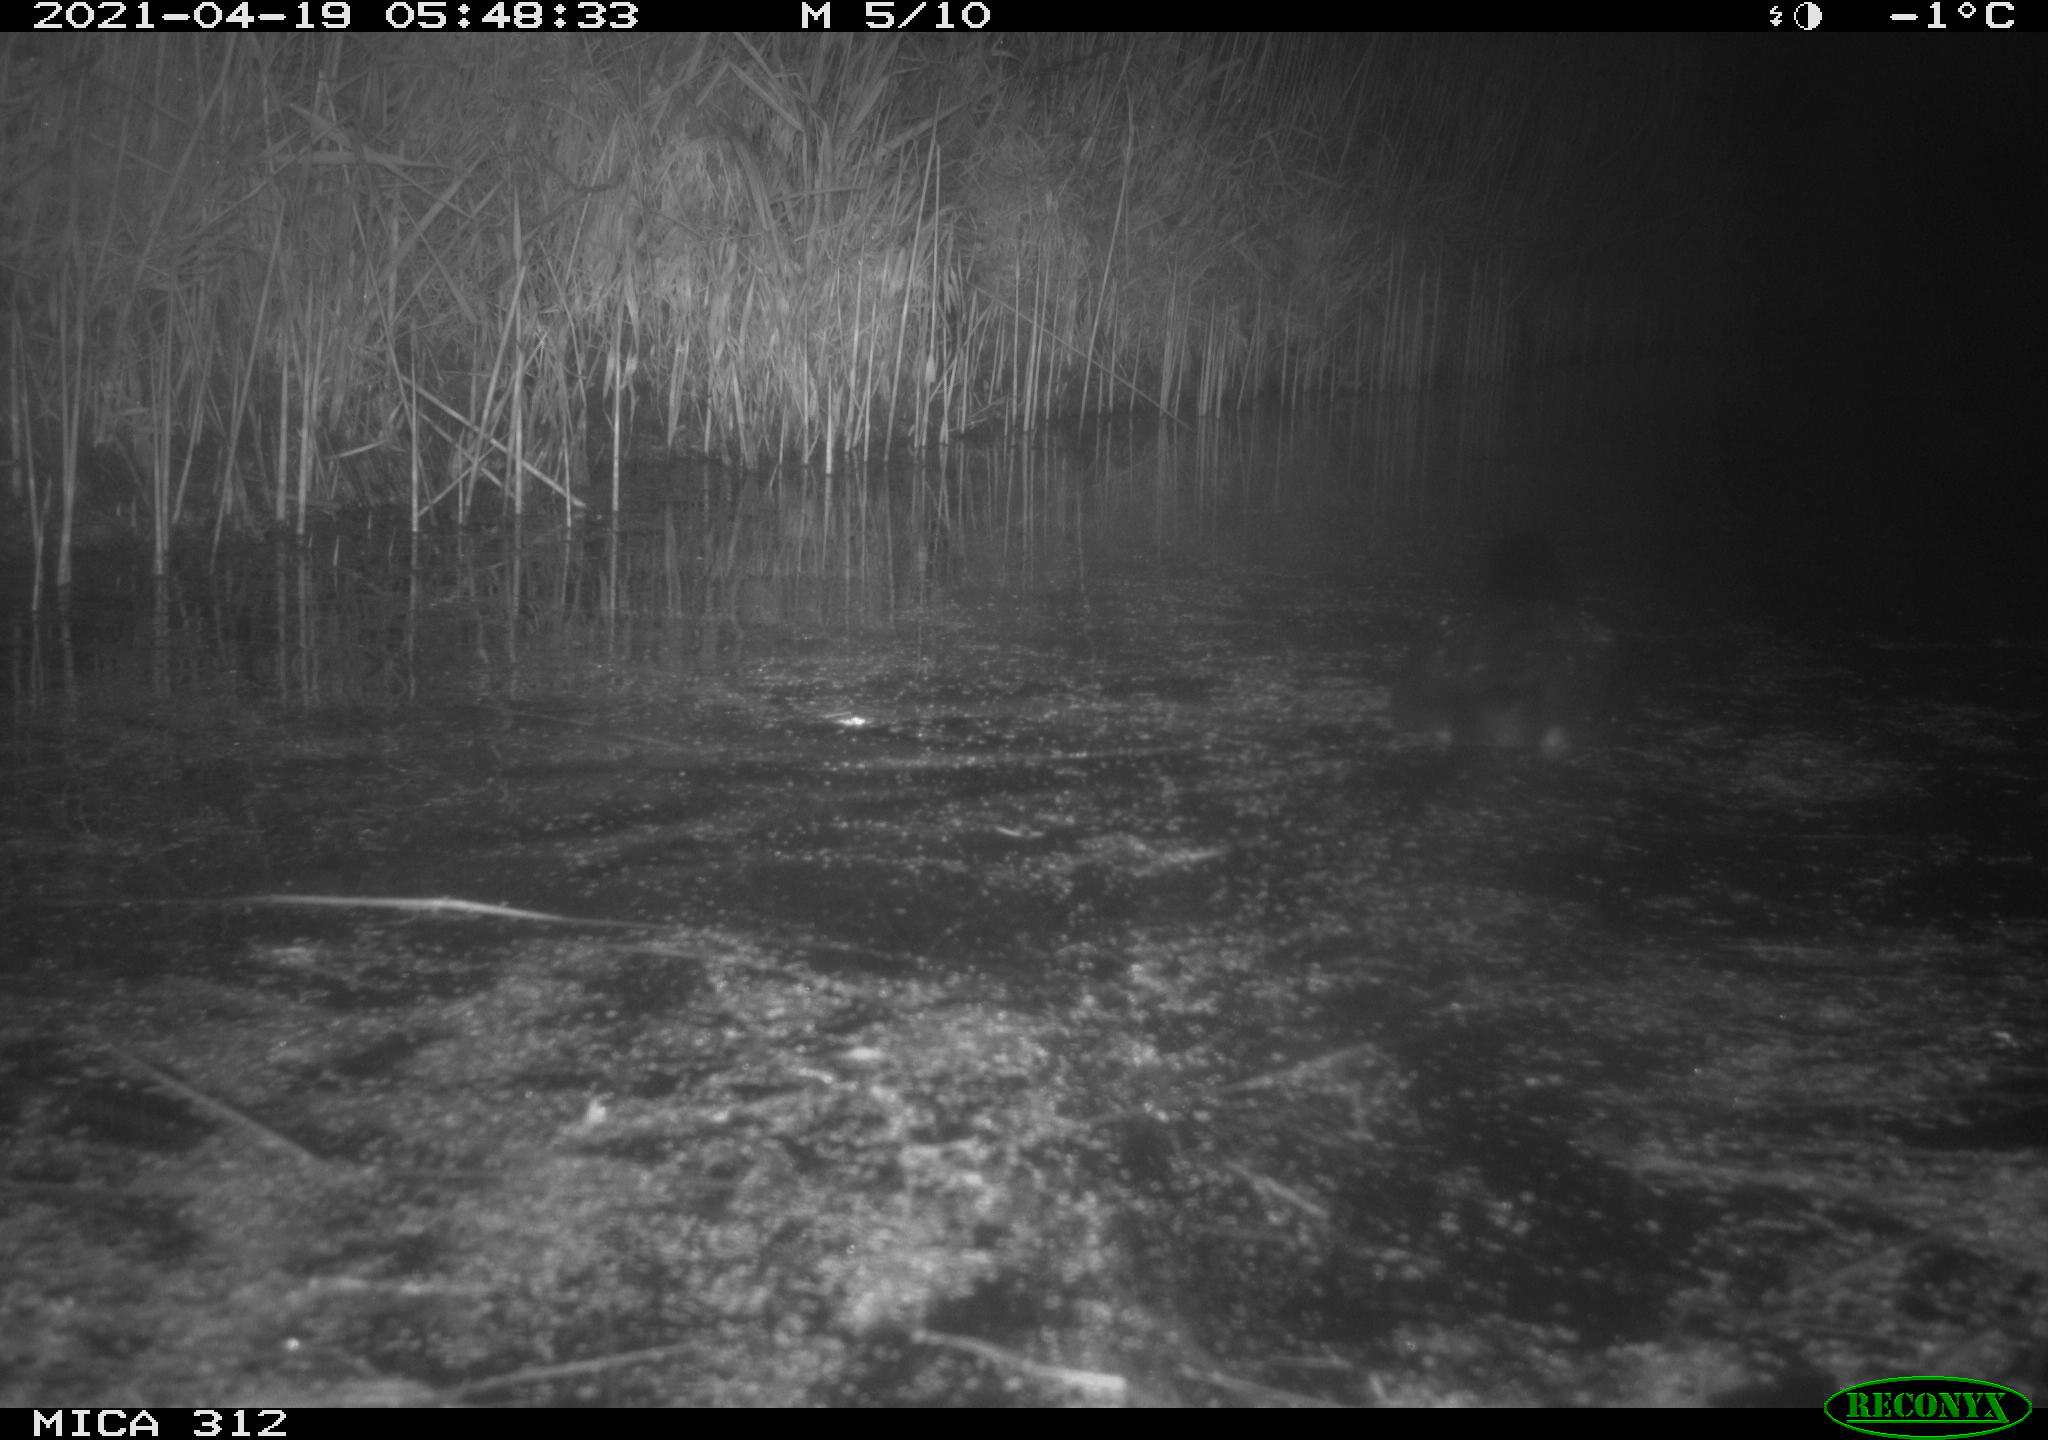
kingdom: Animalia
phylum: Chordata
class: Aves
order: Gruiformes
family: Rallidae
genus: Fulica
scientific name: Fulica atra
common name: Eurasian coot
